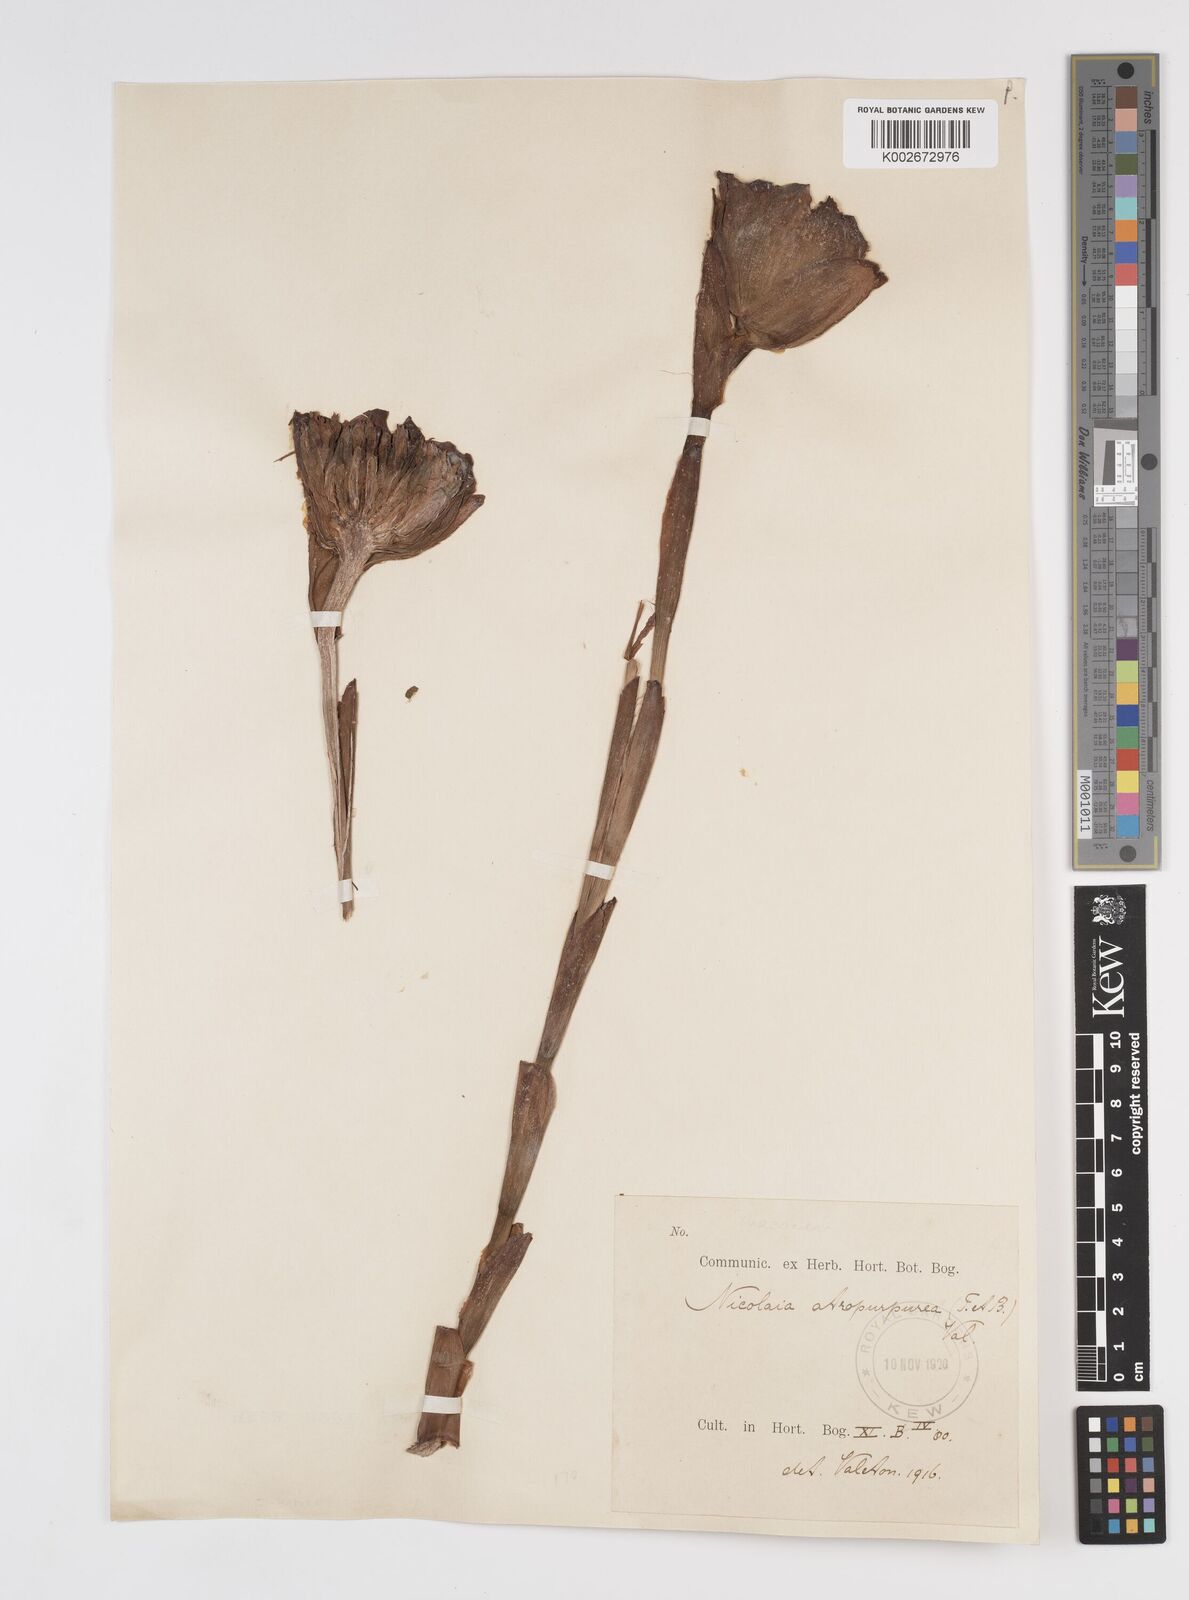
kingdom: Plantae
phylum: Tracheophyta
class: Liliopsida
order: Zingiberales
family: Zingiberaceae
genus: Etlingera
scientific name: Etlingera hemisphaerica
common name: Black tulip
